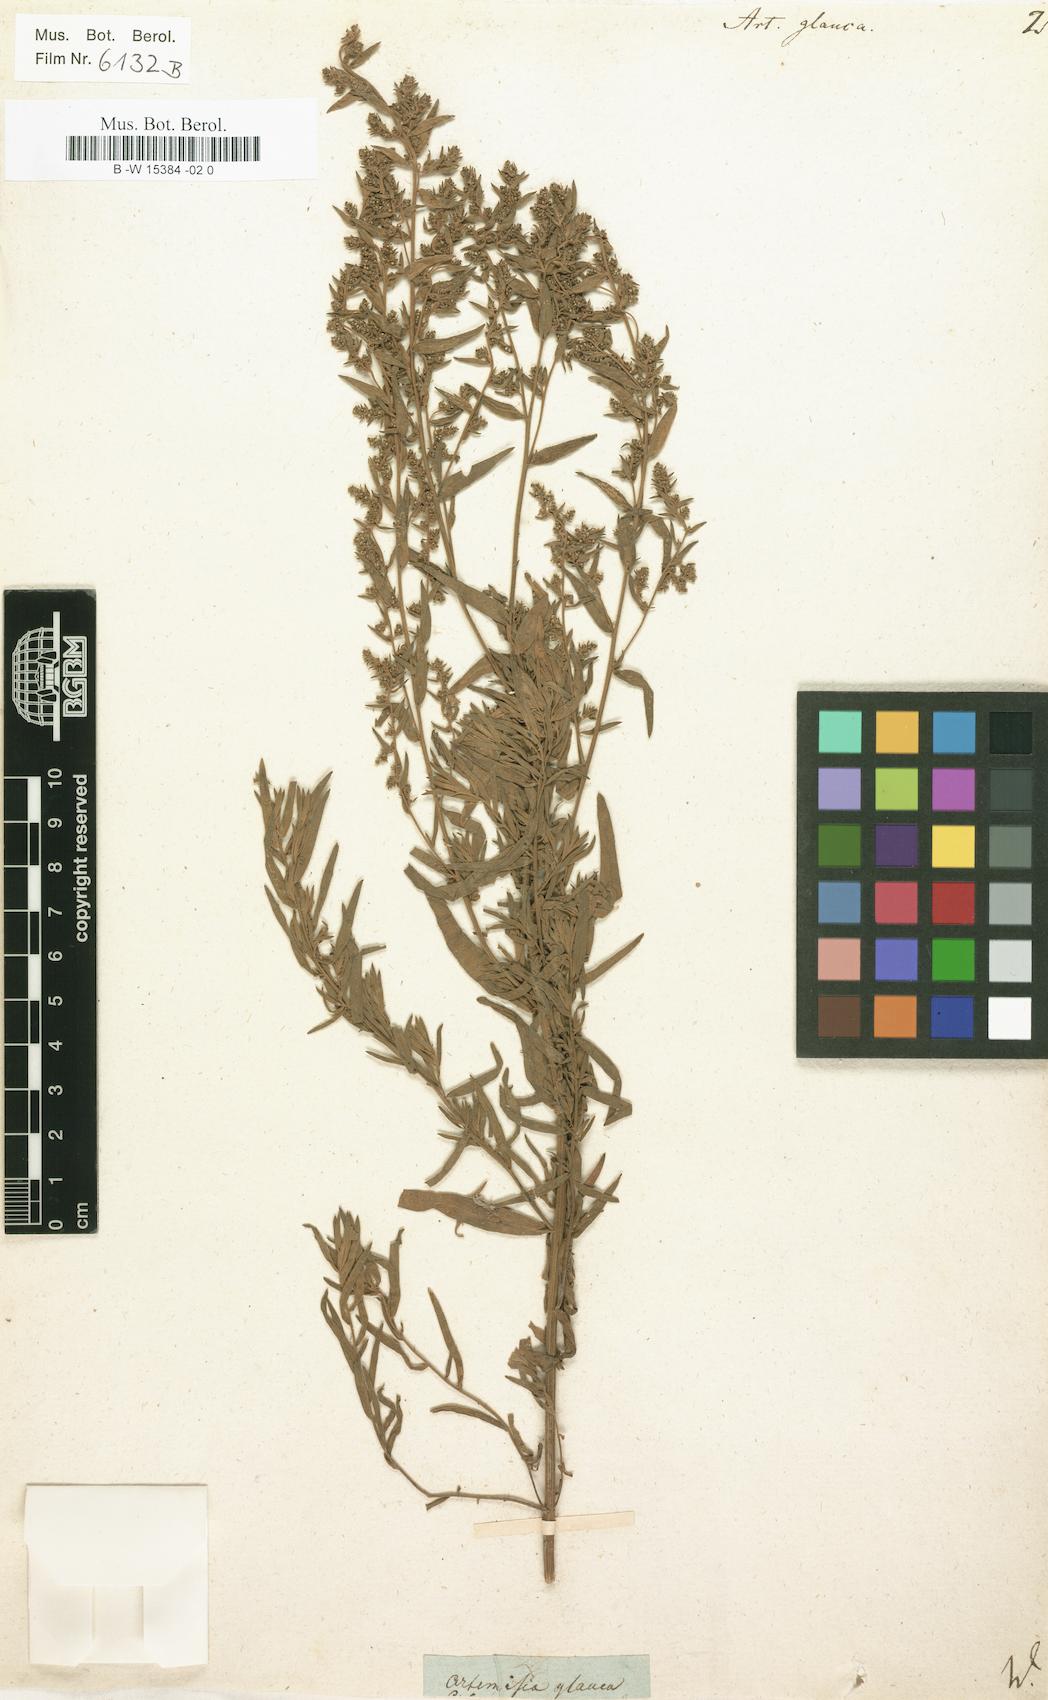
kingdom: Plantae
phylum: Tracheophyta
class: Magnoliopsida
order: Asterales
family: Asteraceae
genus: Artemisia
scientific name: Artemisia glauca
